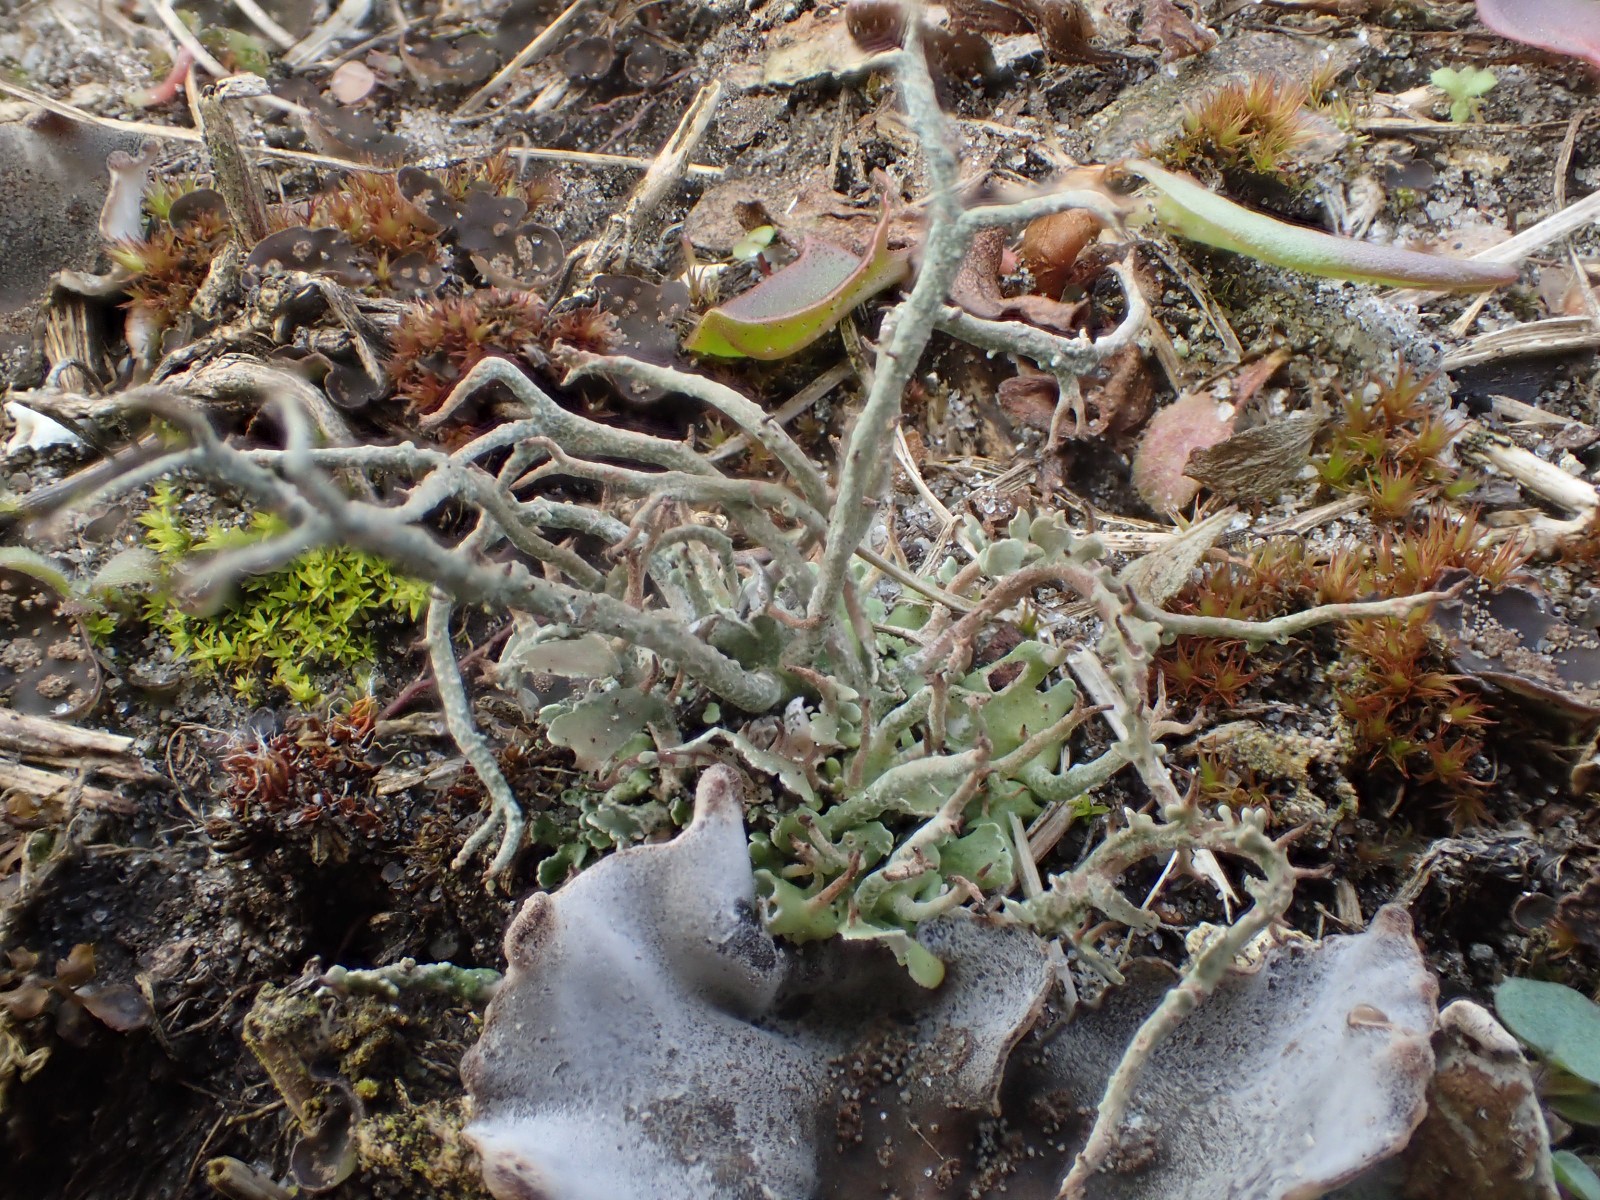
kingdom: Fungi
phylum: Ascomycota
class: Lecanoromycetes
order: Lecanorales
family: Cladoniaceae
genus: Cladonia
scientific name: Cladonia furcata
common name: kløftet bægerlav
